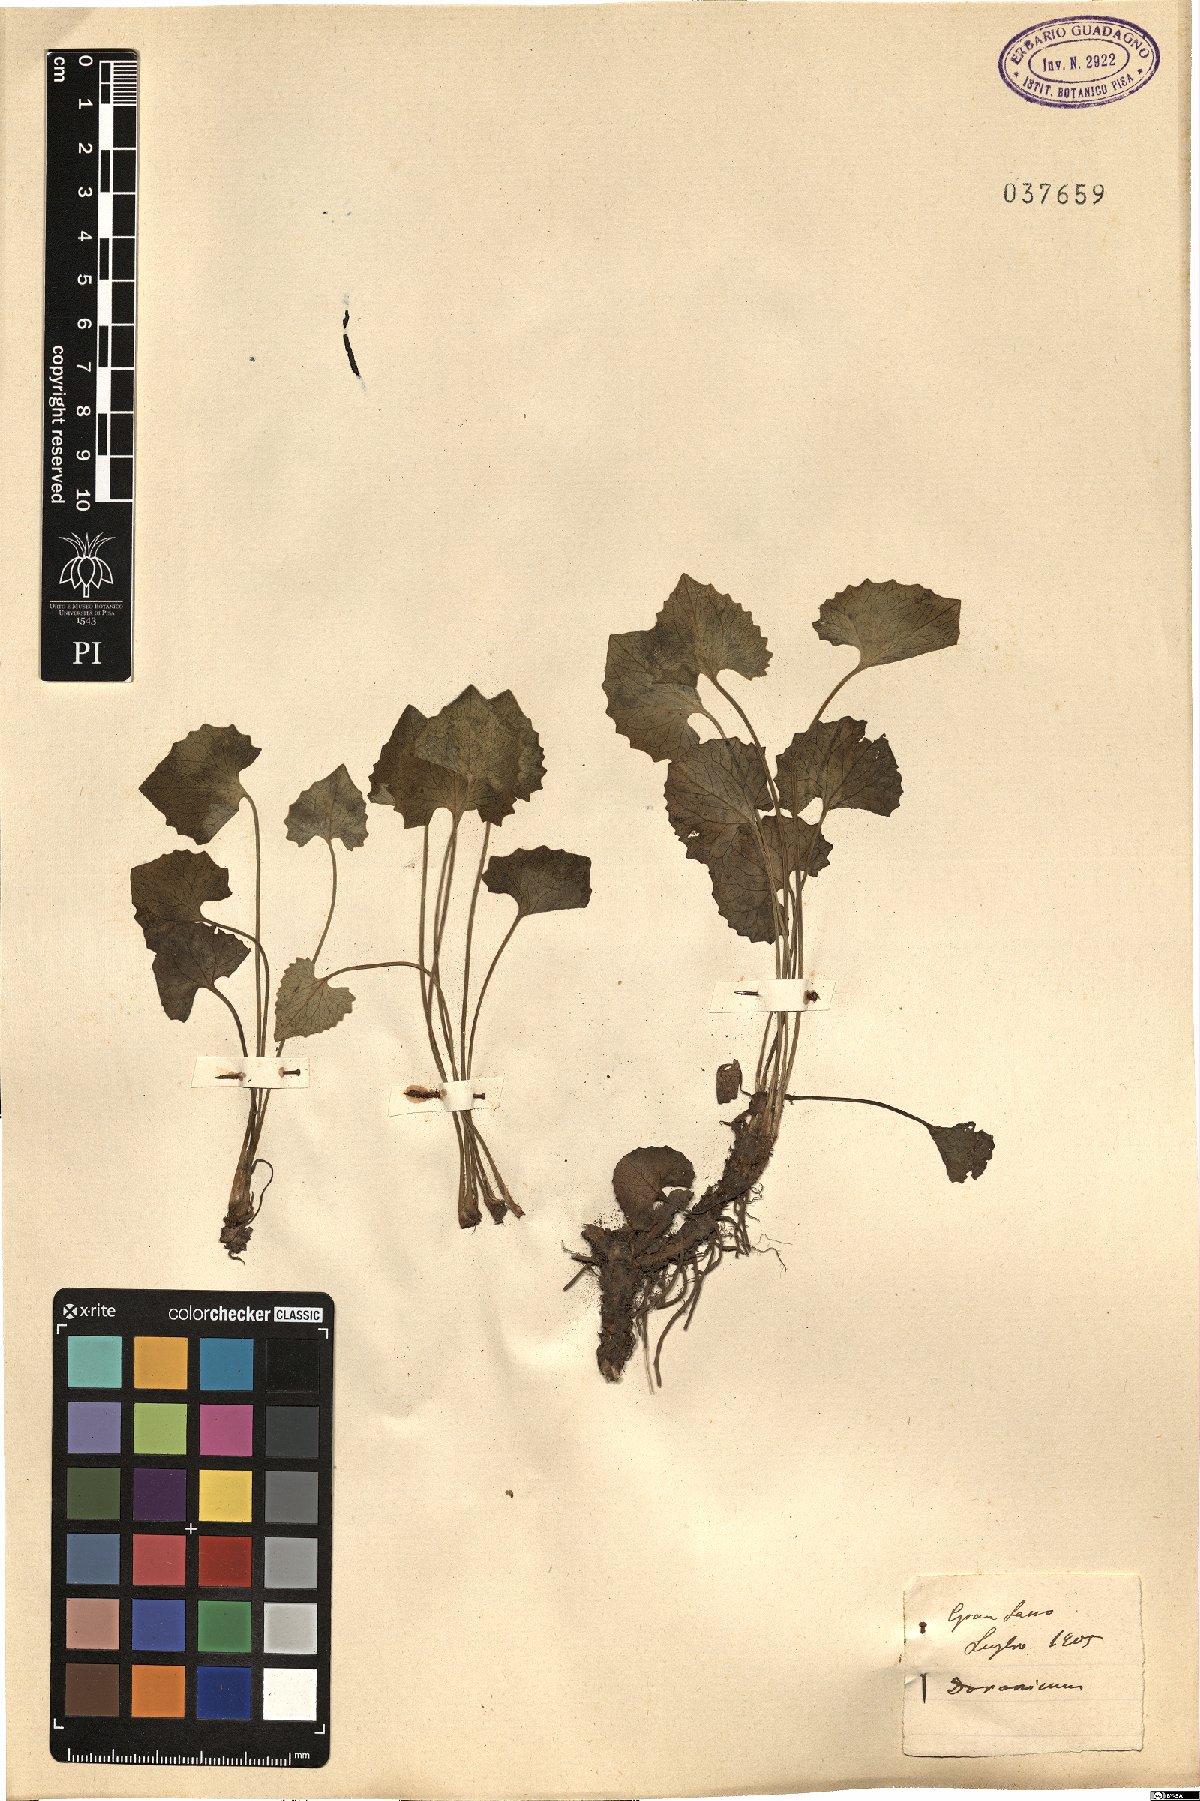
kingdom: Plantae
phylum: Tracheophyta
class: Magnoliopsida
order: Asterales
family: Asteraceae
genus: Doronicum
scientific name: Doronicum
